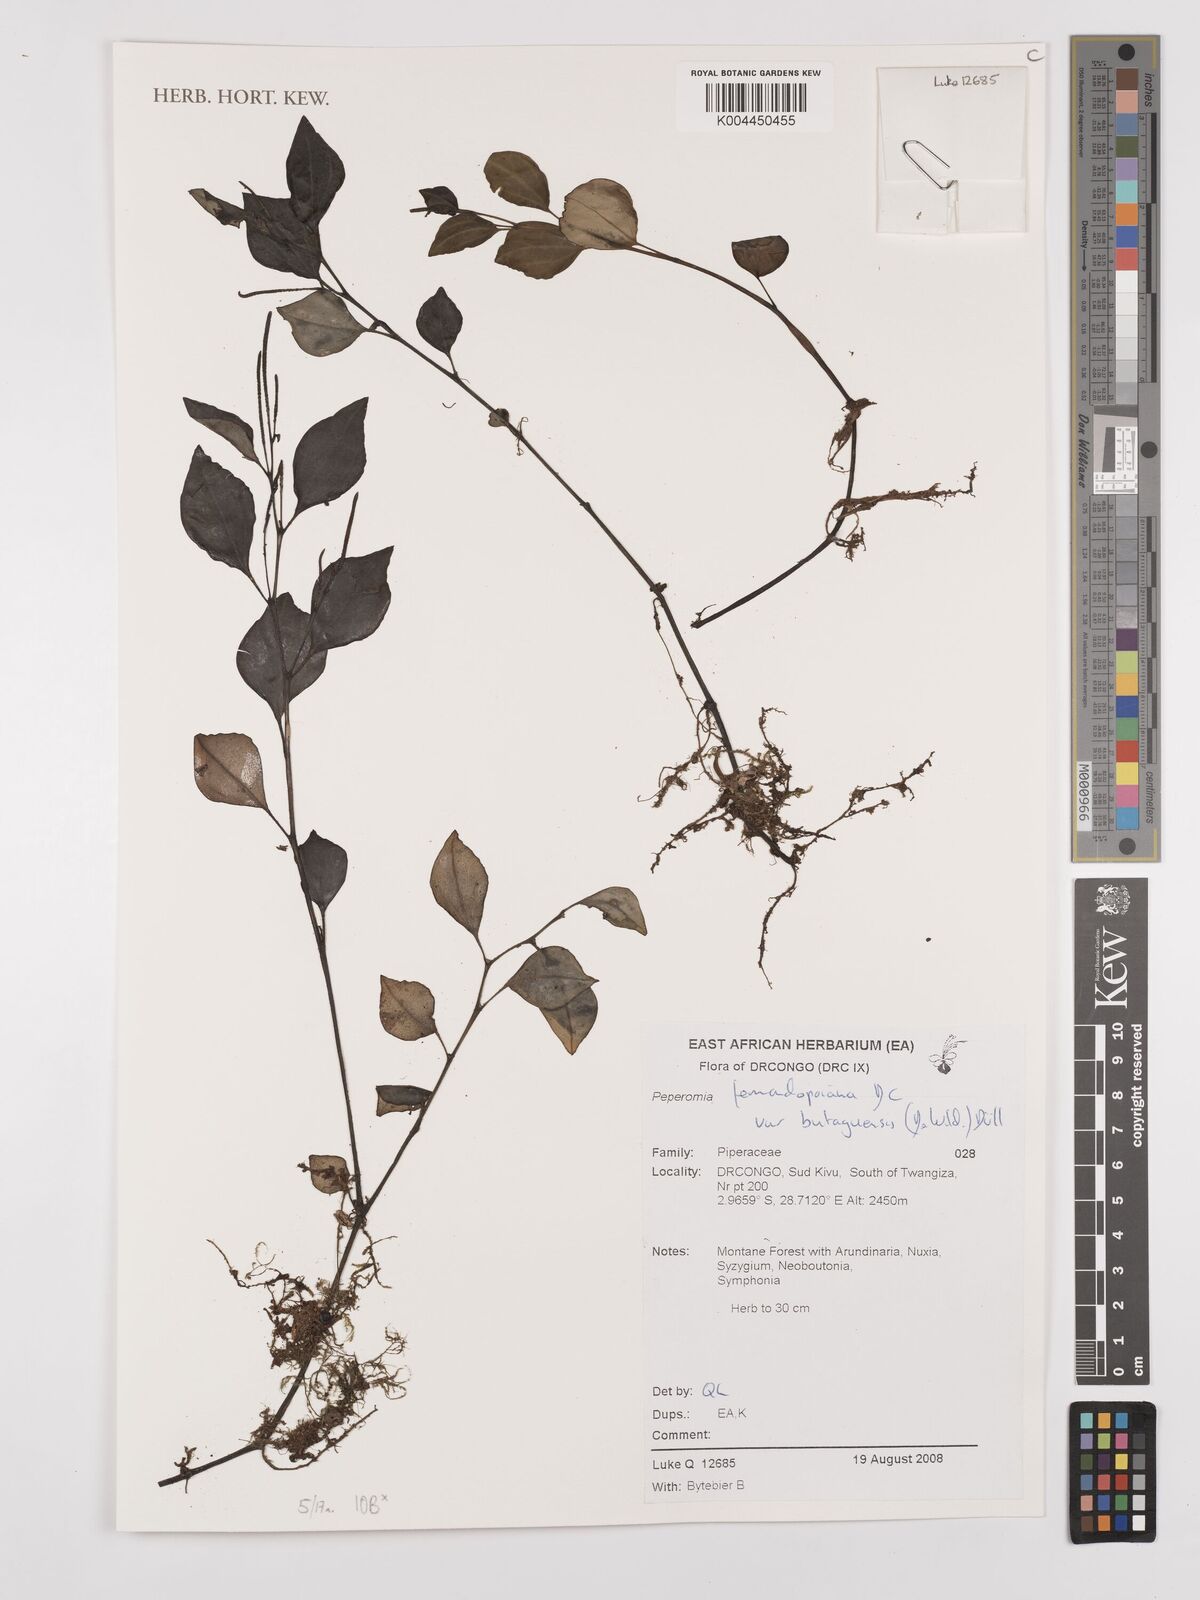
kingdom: Plantae
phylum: Tracheophyta
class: Magnoliopsida
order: Piperales
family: Piperaceae
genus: Peperomia
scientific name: Peperomia fernandopoiana
